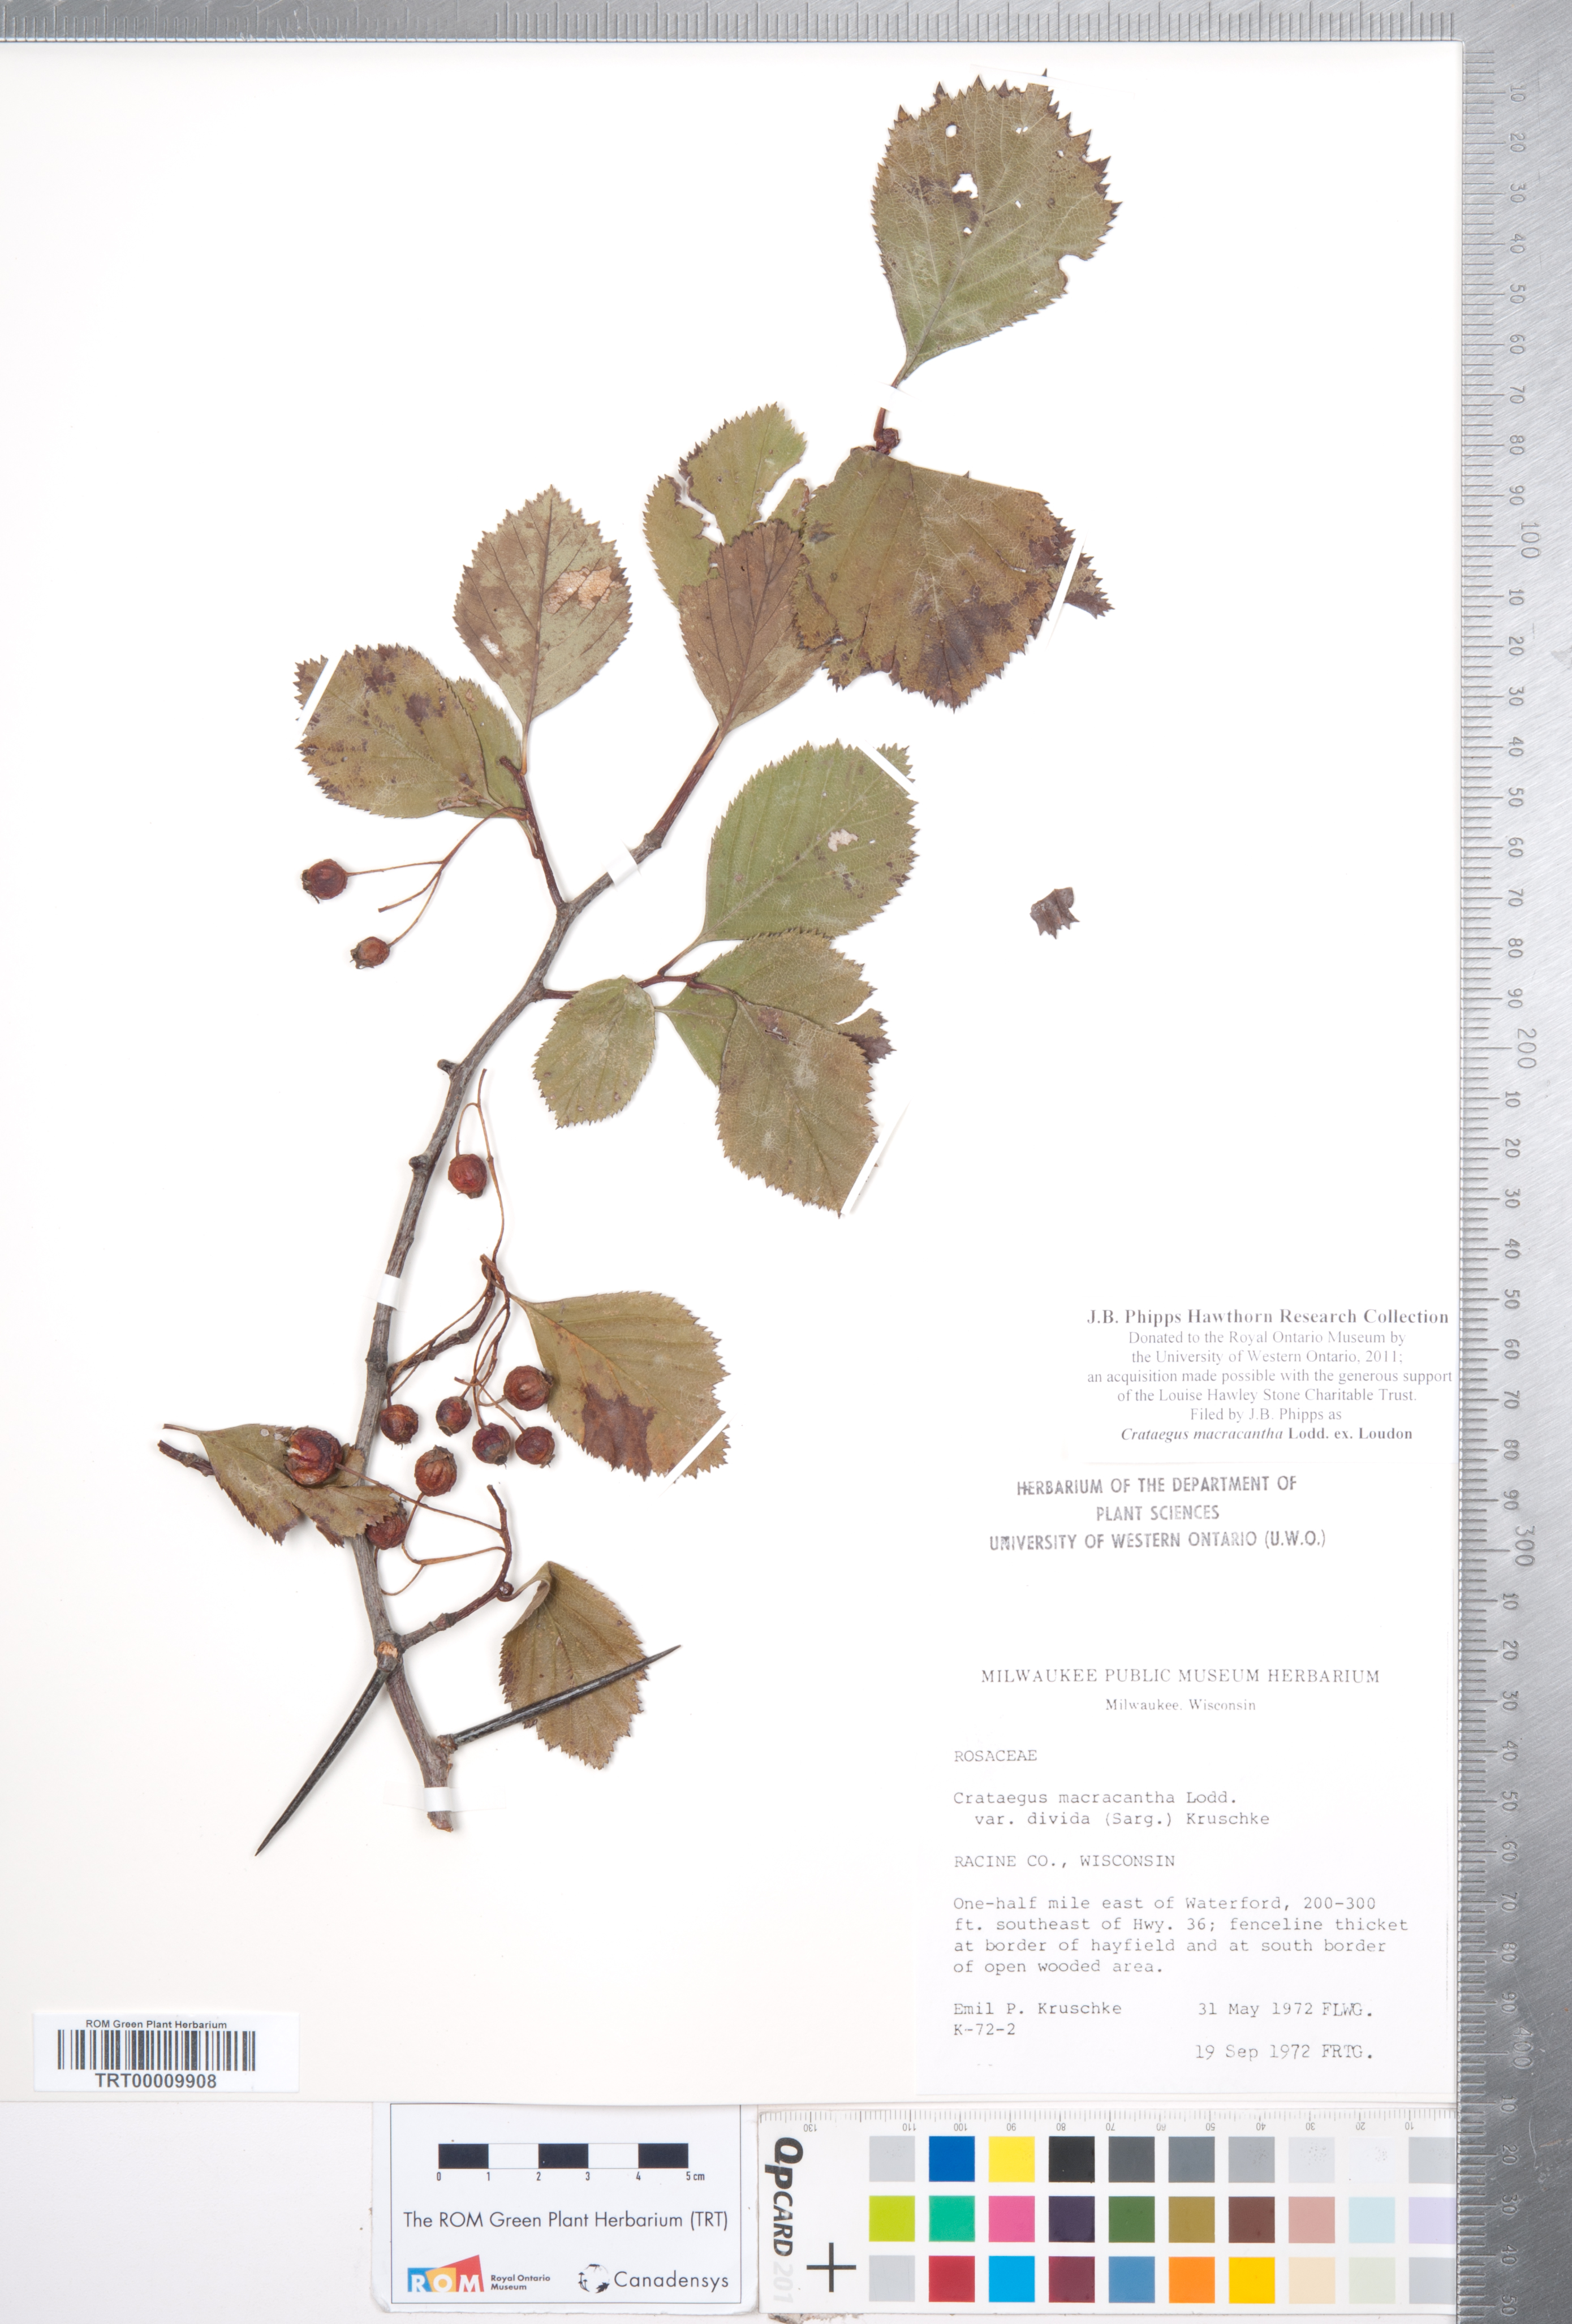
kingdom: Plantae
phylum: Tracheophyta
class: Magnoliopsida
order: Rosales
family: Rosaceae
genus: Crataegus
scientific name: Crataegus macracantha
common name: Large-thorn hawthorn
